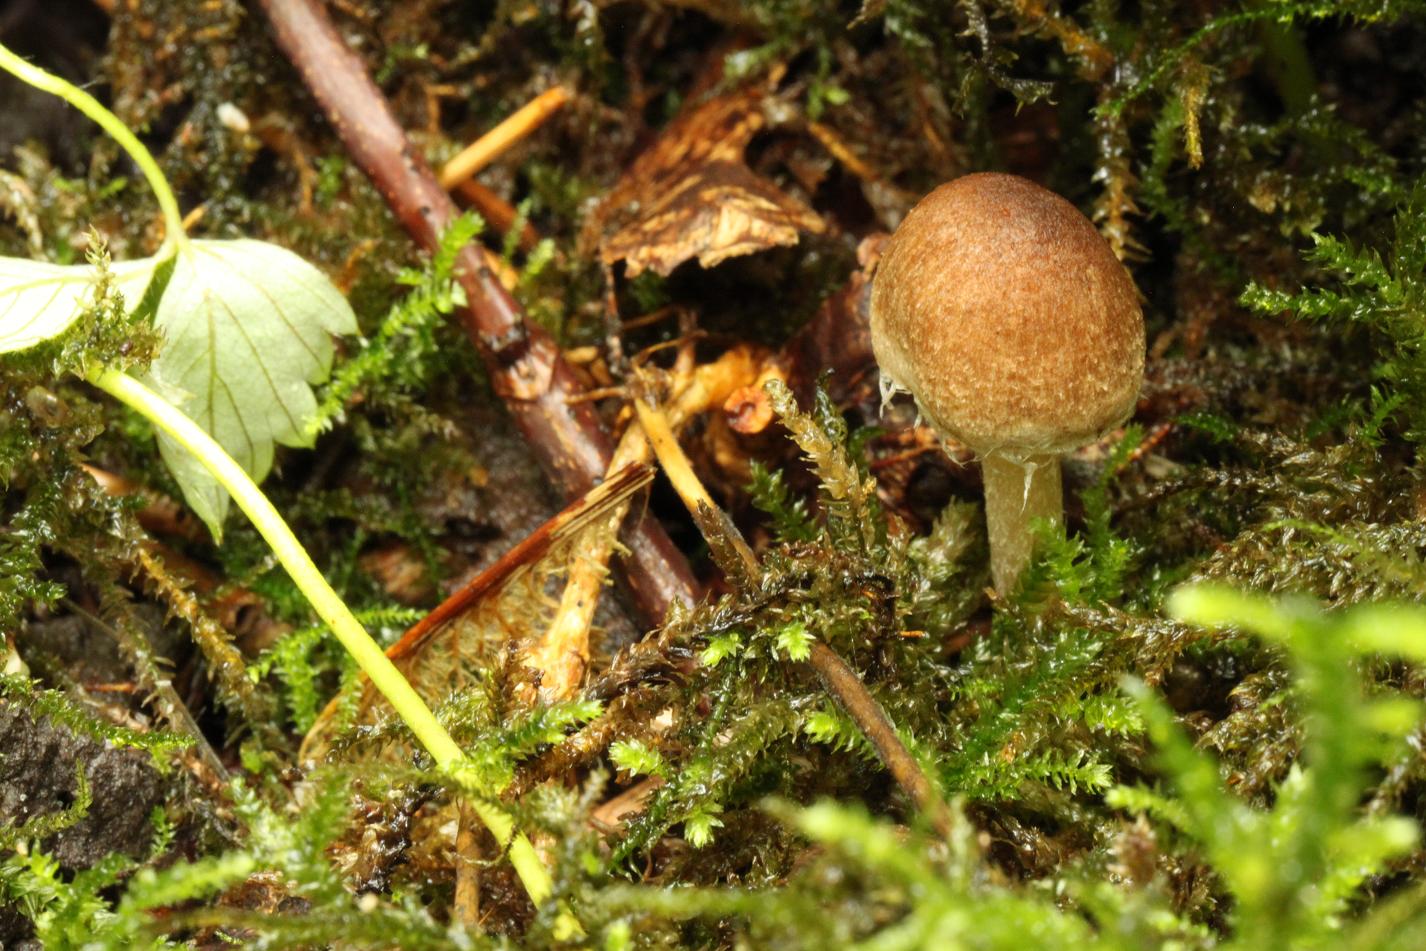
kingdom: Fungi
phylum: Basidiomycota
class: Agaricomycetes
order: Agaricales
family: Inocybaceae
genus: Inocybe
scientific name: Inocybe
